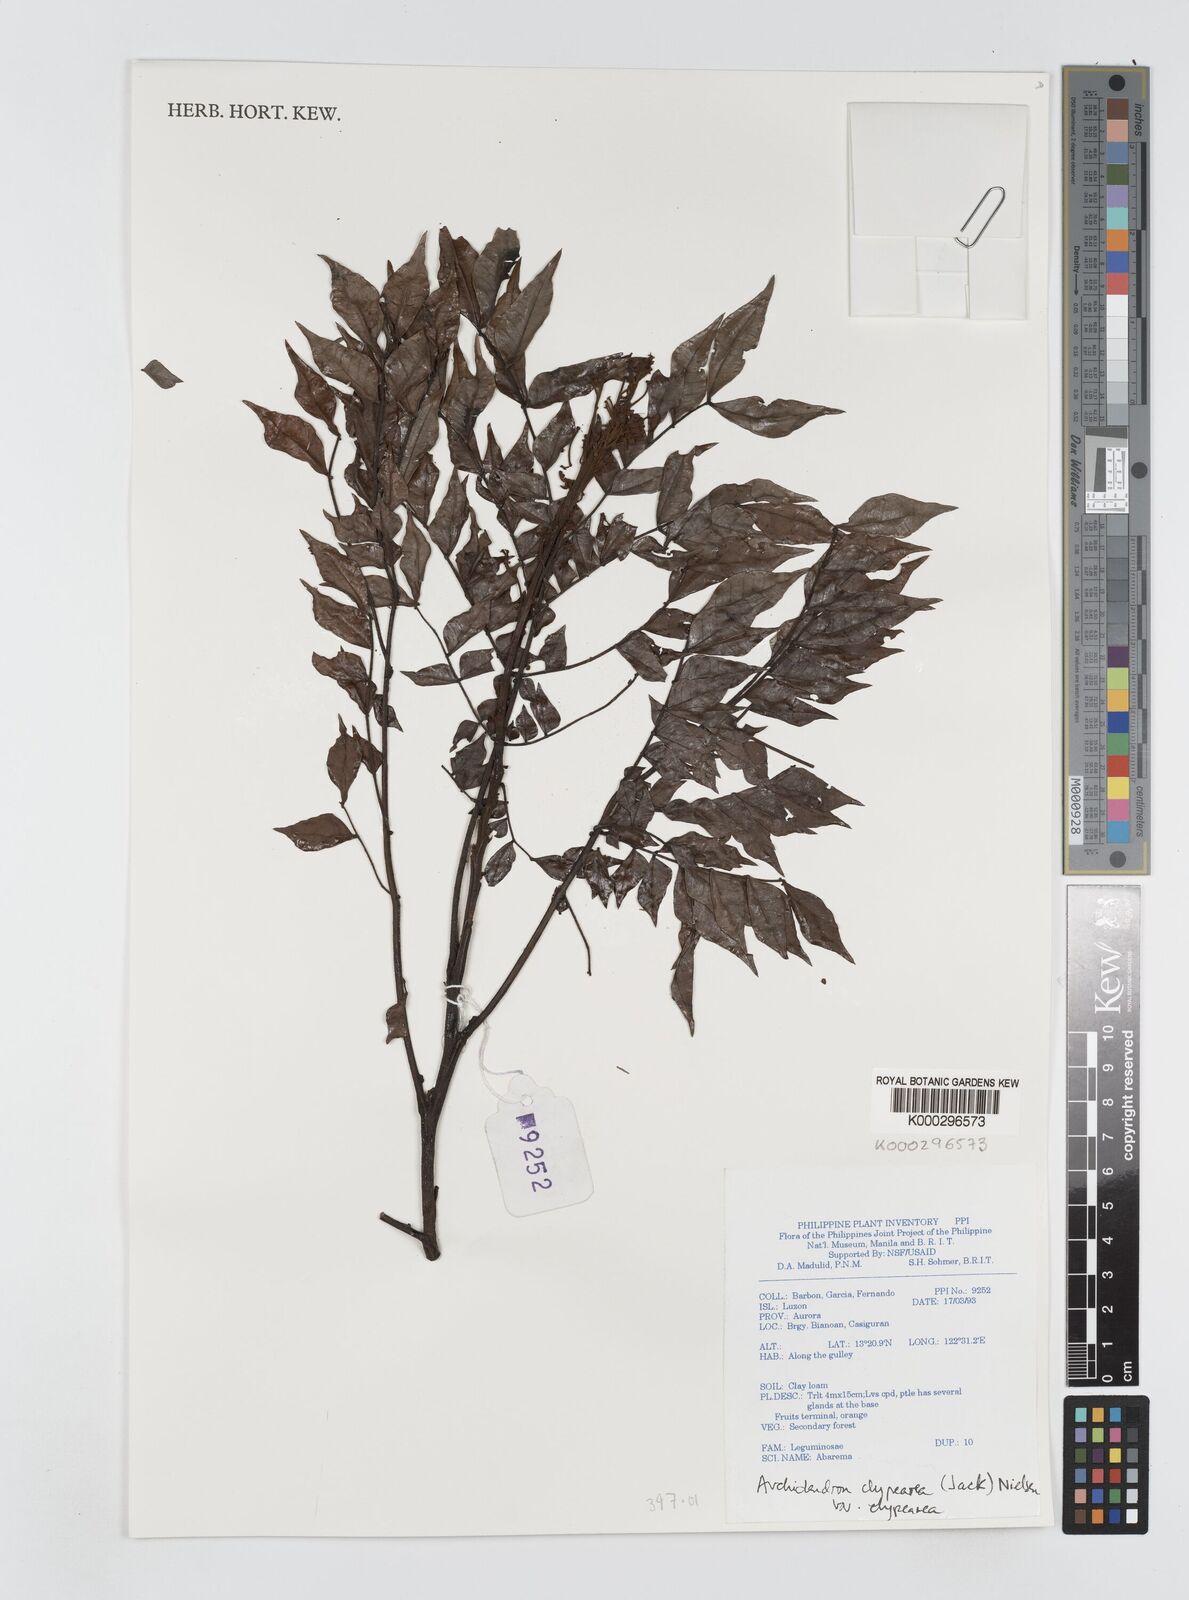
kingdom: Plantae
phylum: Tracheophyta
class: Magnoliopsida
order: Fabales
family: Fabaceae
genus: Archidendron
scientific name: Archidendron clypearia
